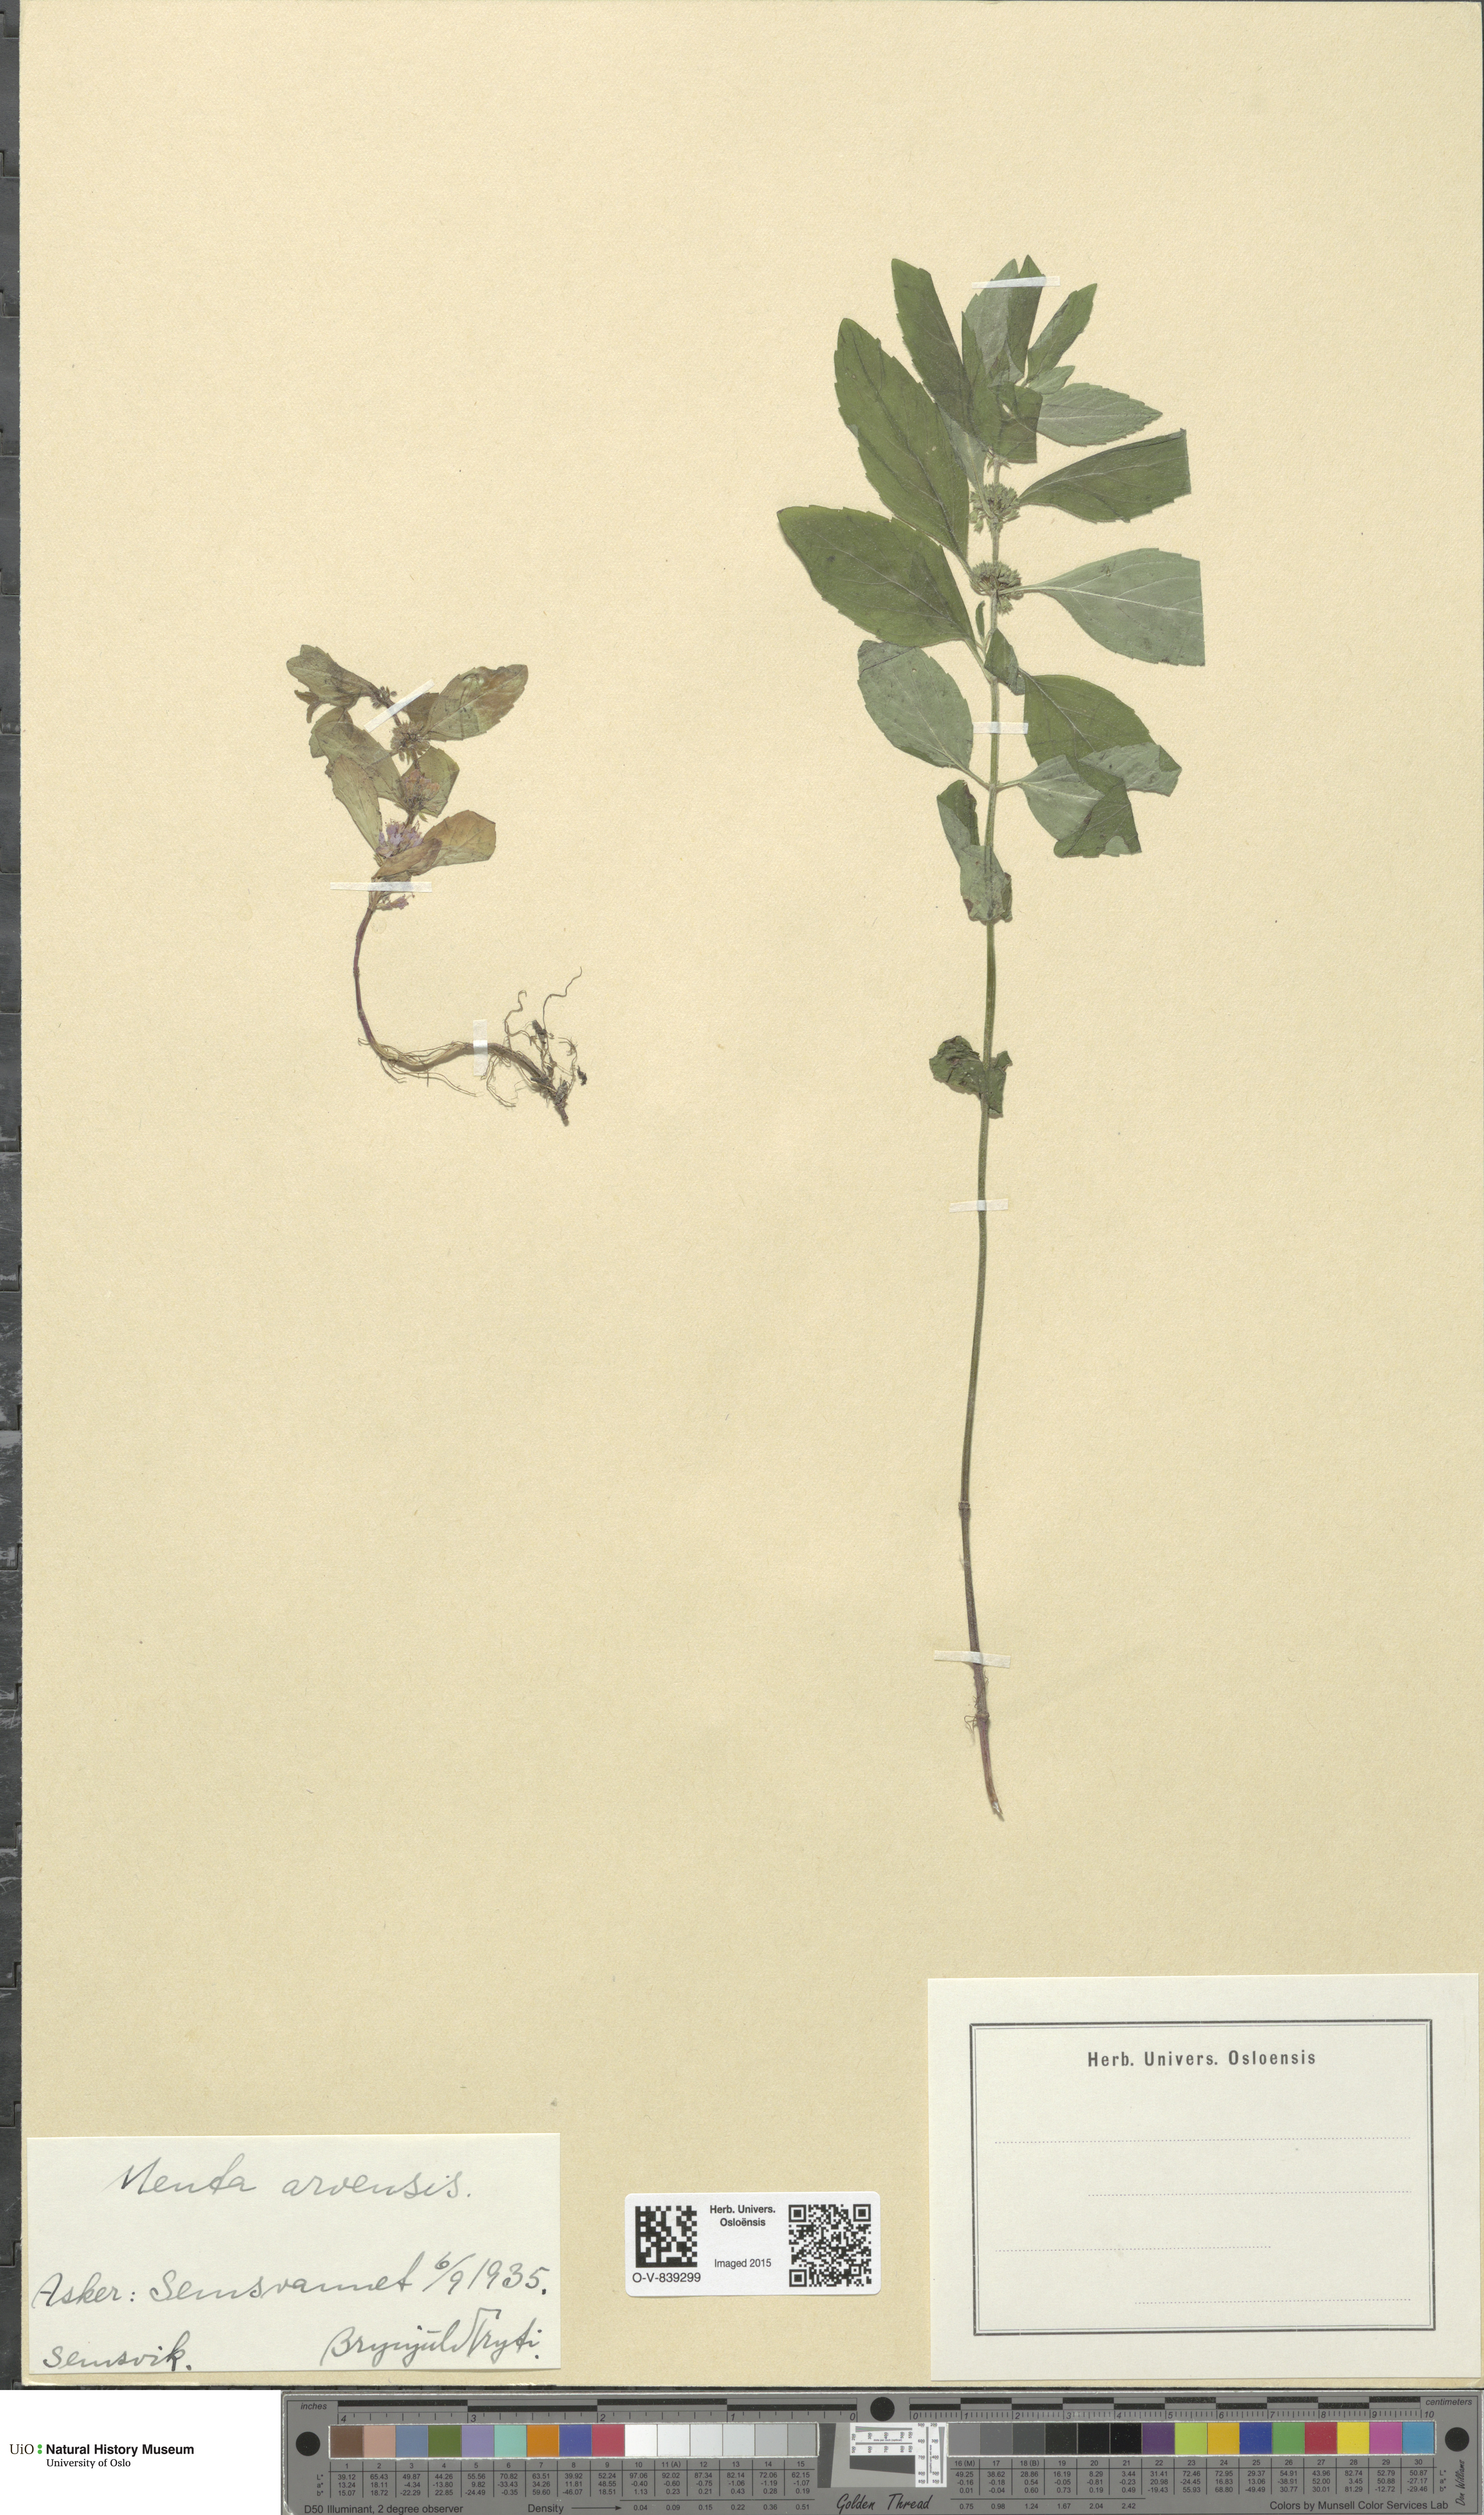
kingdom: Plantae
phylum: Tracheophyta
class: Magnoliopsida
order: Lamiales
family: Lamiaceae
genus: Mentha
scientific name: Mentha arvensis
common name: Corn mint
